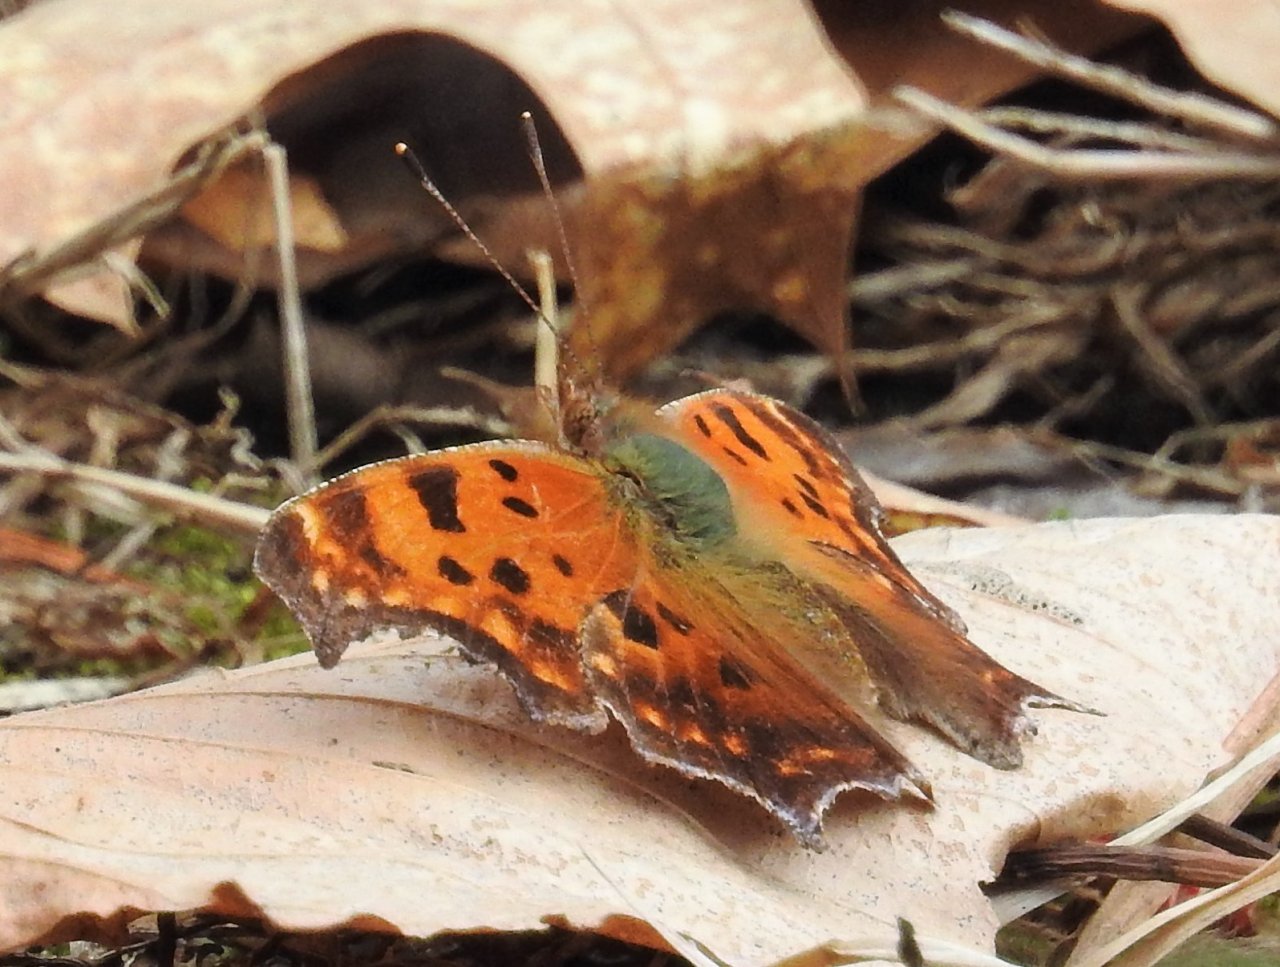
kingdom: Animalia
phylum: Arthropoda
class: Insecta
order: Lepidoptera
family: Nymphalidae
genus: Polygonia
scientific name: Polygonia comma
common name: Eastern Comma
